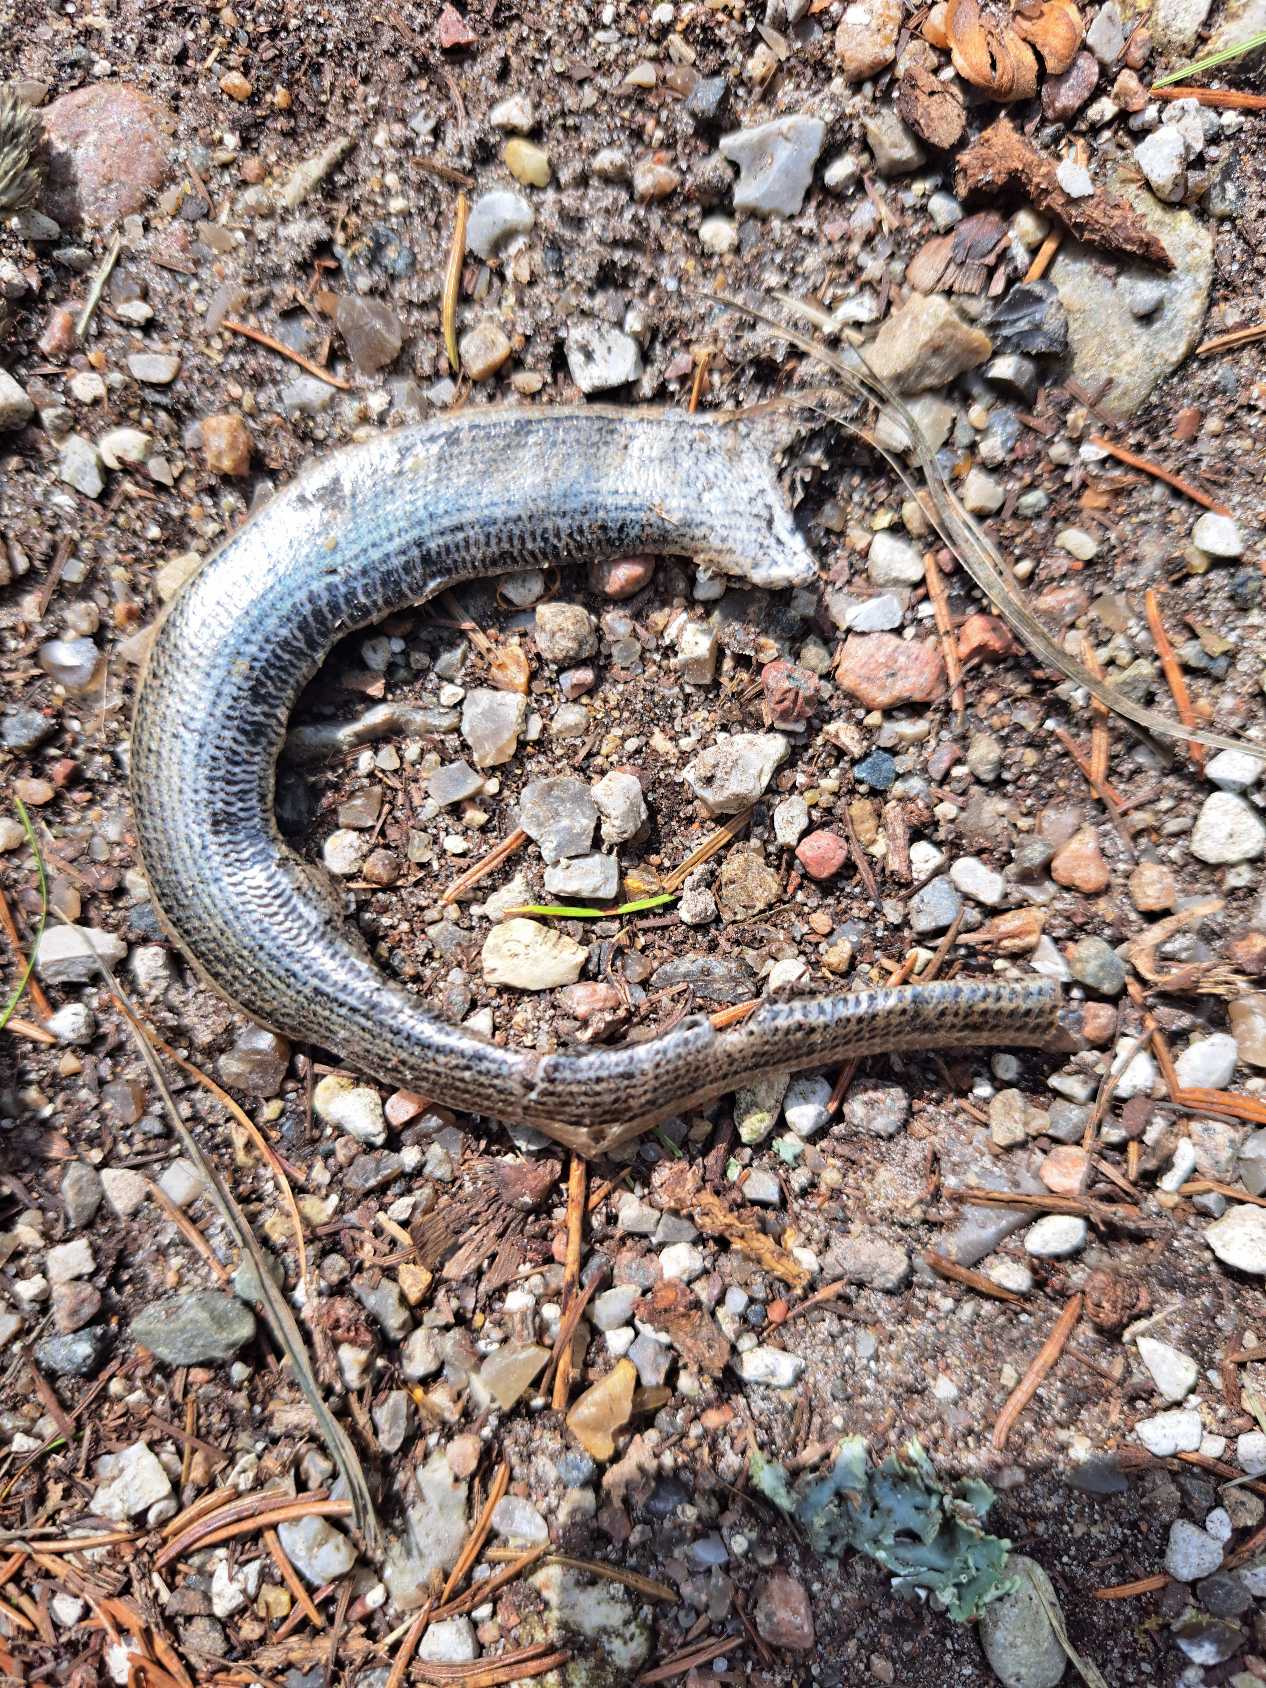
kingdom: Animalia
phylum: Chordata
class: Squamata
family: Anguidae
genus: Anguis
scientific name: Anguis fragilis
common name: Stålorm
